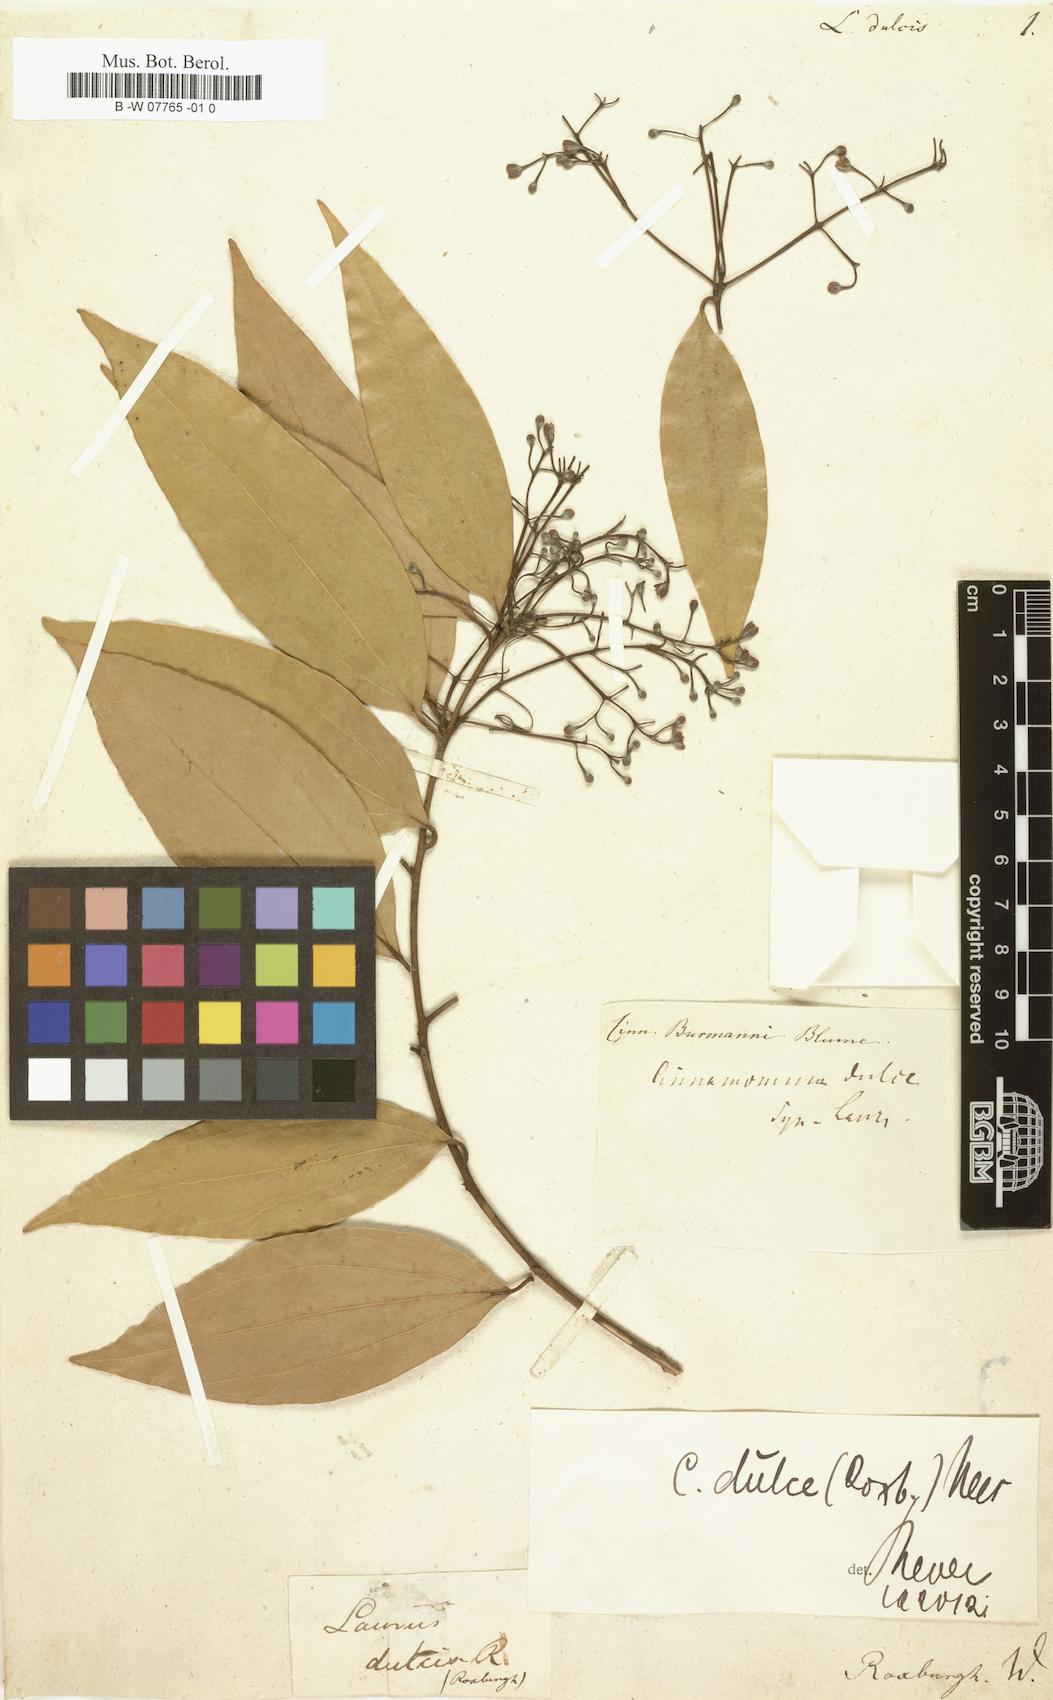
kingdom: Plantae
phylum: Tracheophyta
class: Magnoliopsida
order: Laurales
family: Lauraceae
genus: Cinnamomum
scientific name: Cinnamomum burmanni
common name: Padang cassia
